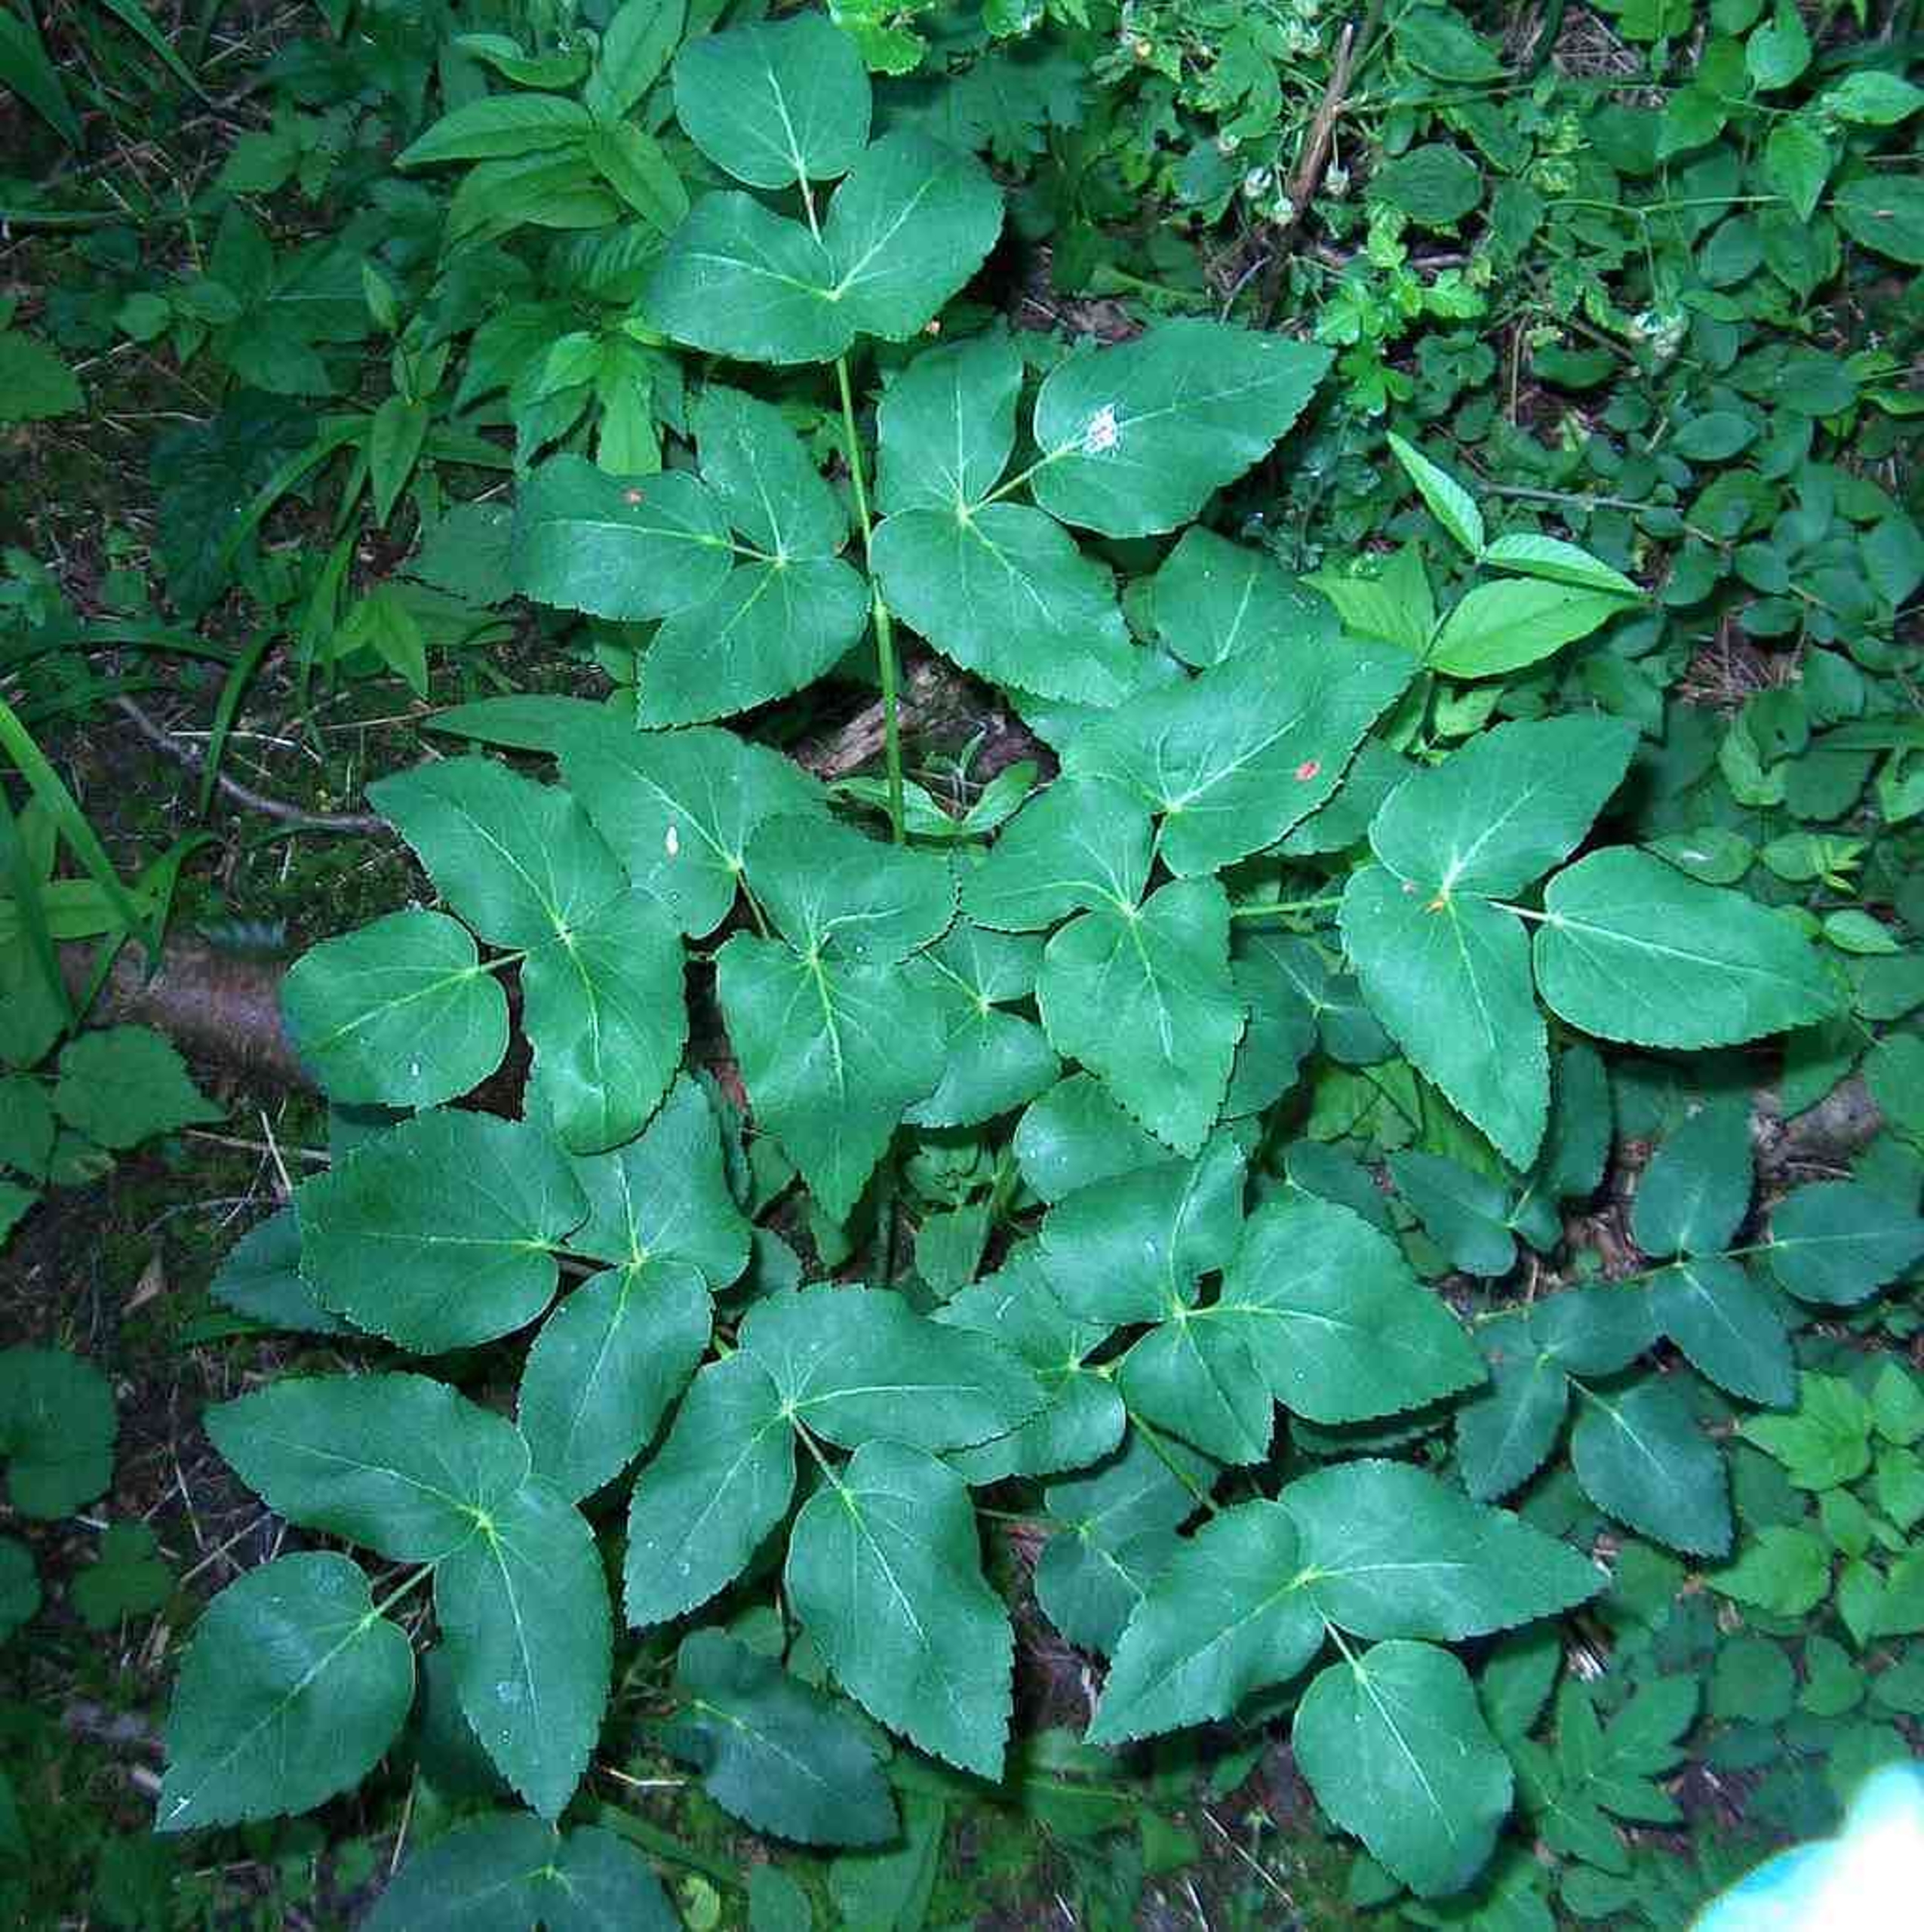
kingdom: Plantae
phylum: Tracheophyta
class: Magnoliopsida
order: Apiales
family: Apiaceae
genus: Laserpitium
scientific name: Laserpitium latifolium
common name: Foldfrø
